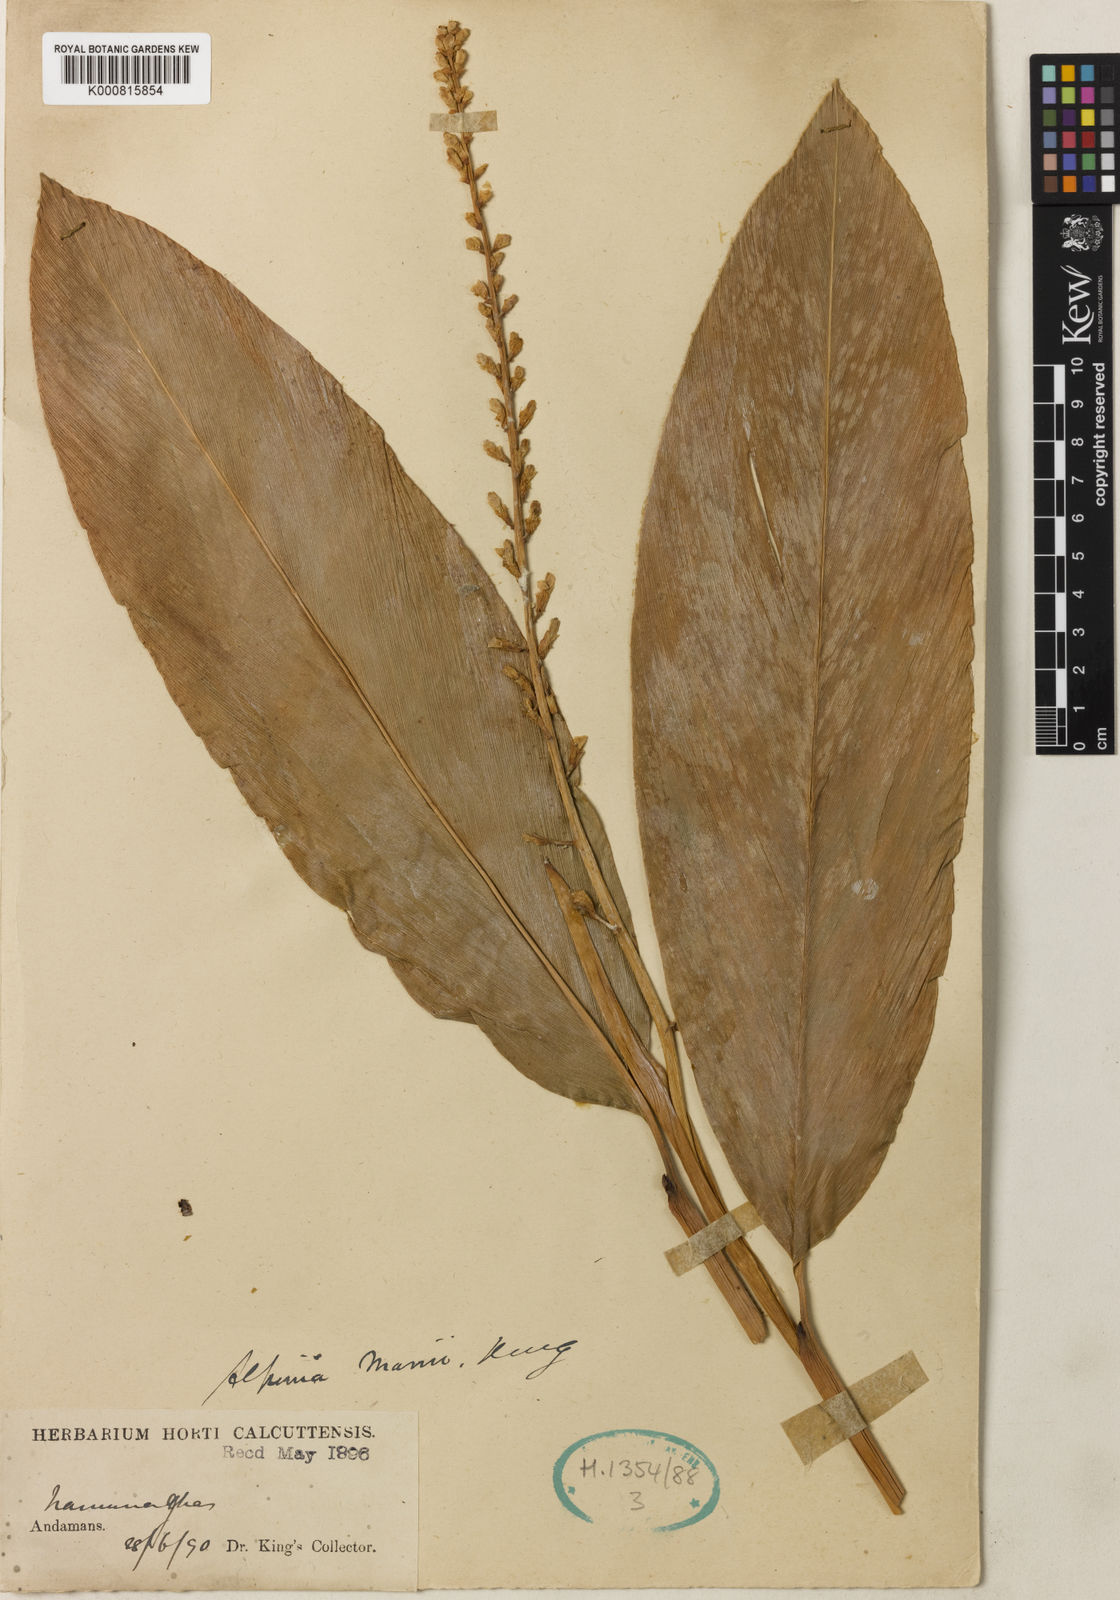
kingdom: Plantae
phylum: Tracheophyta
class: Liliopsida
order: Zingiberales
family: Zingiberaceae
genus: Alpinia
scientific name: Alpinia
